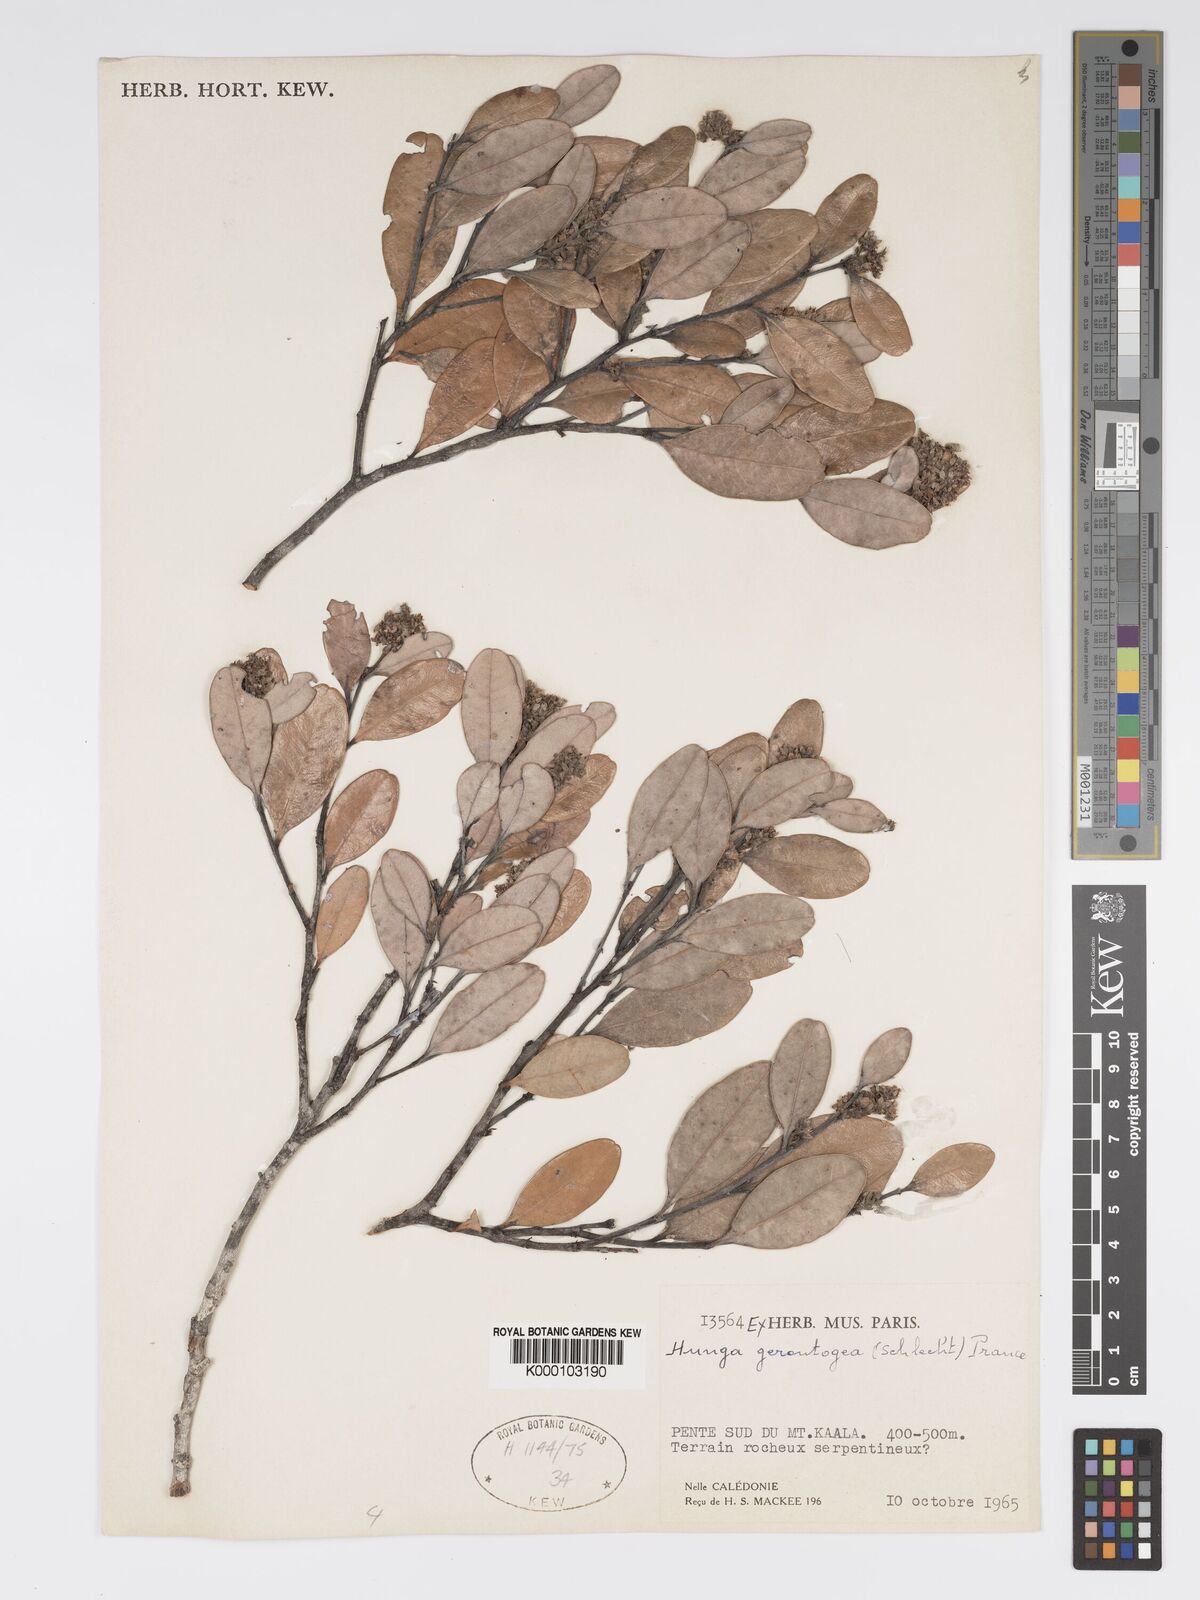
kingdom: Plantae
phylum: Tracheophyta
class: Magnoliopsida
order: Malpighiales
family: Chrysobalanaceae
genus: Hunga
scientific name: Hunga gerontogea
